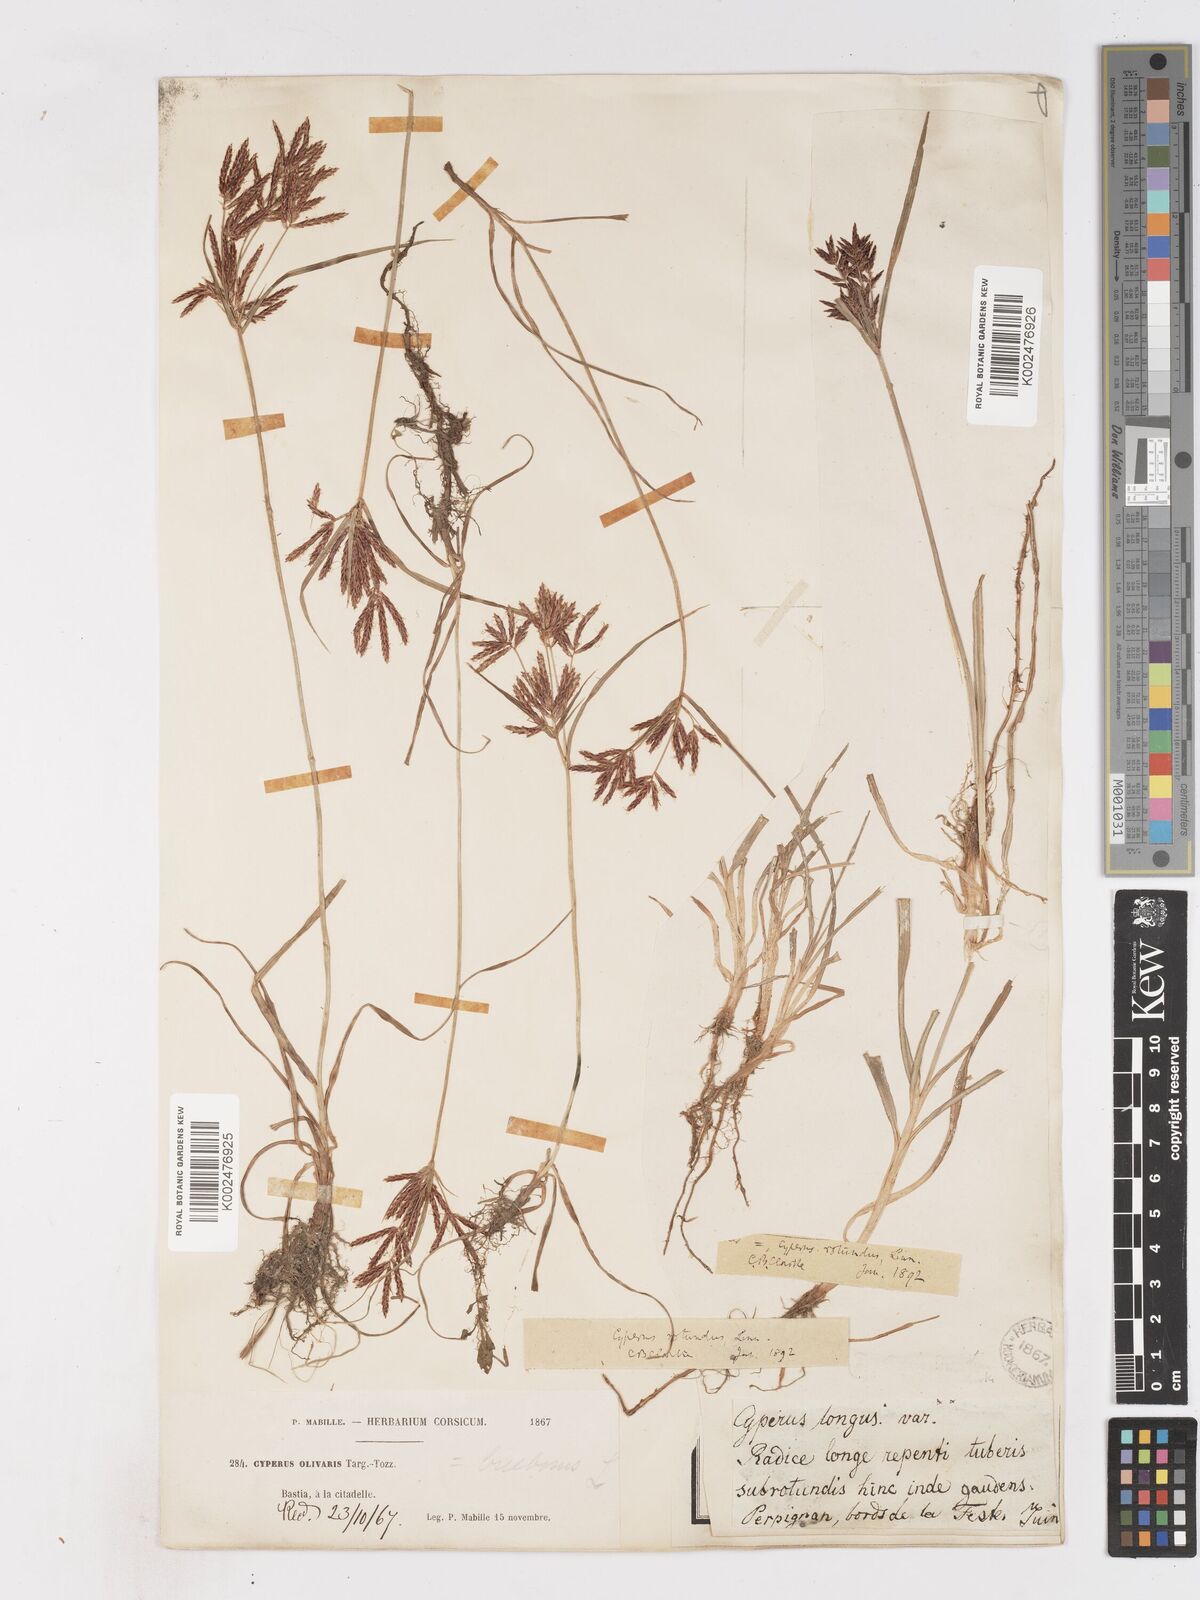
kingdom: Plantae
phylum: Tracheophyta
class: Liliopsida
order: Poales
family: Cyperaceae
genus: Cyperus
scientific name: Cyperus rotundus
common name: Nutgrass
